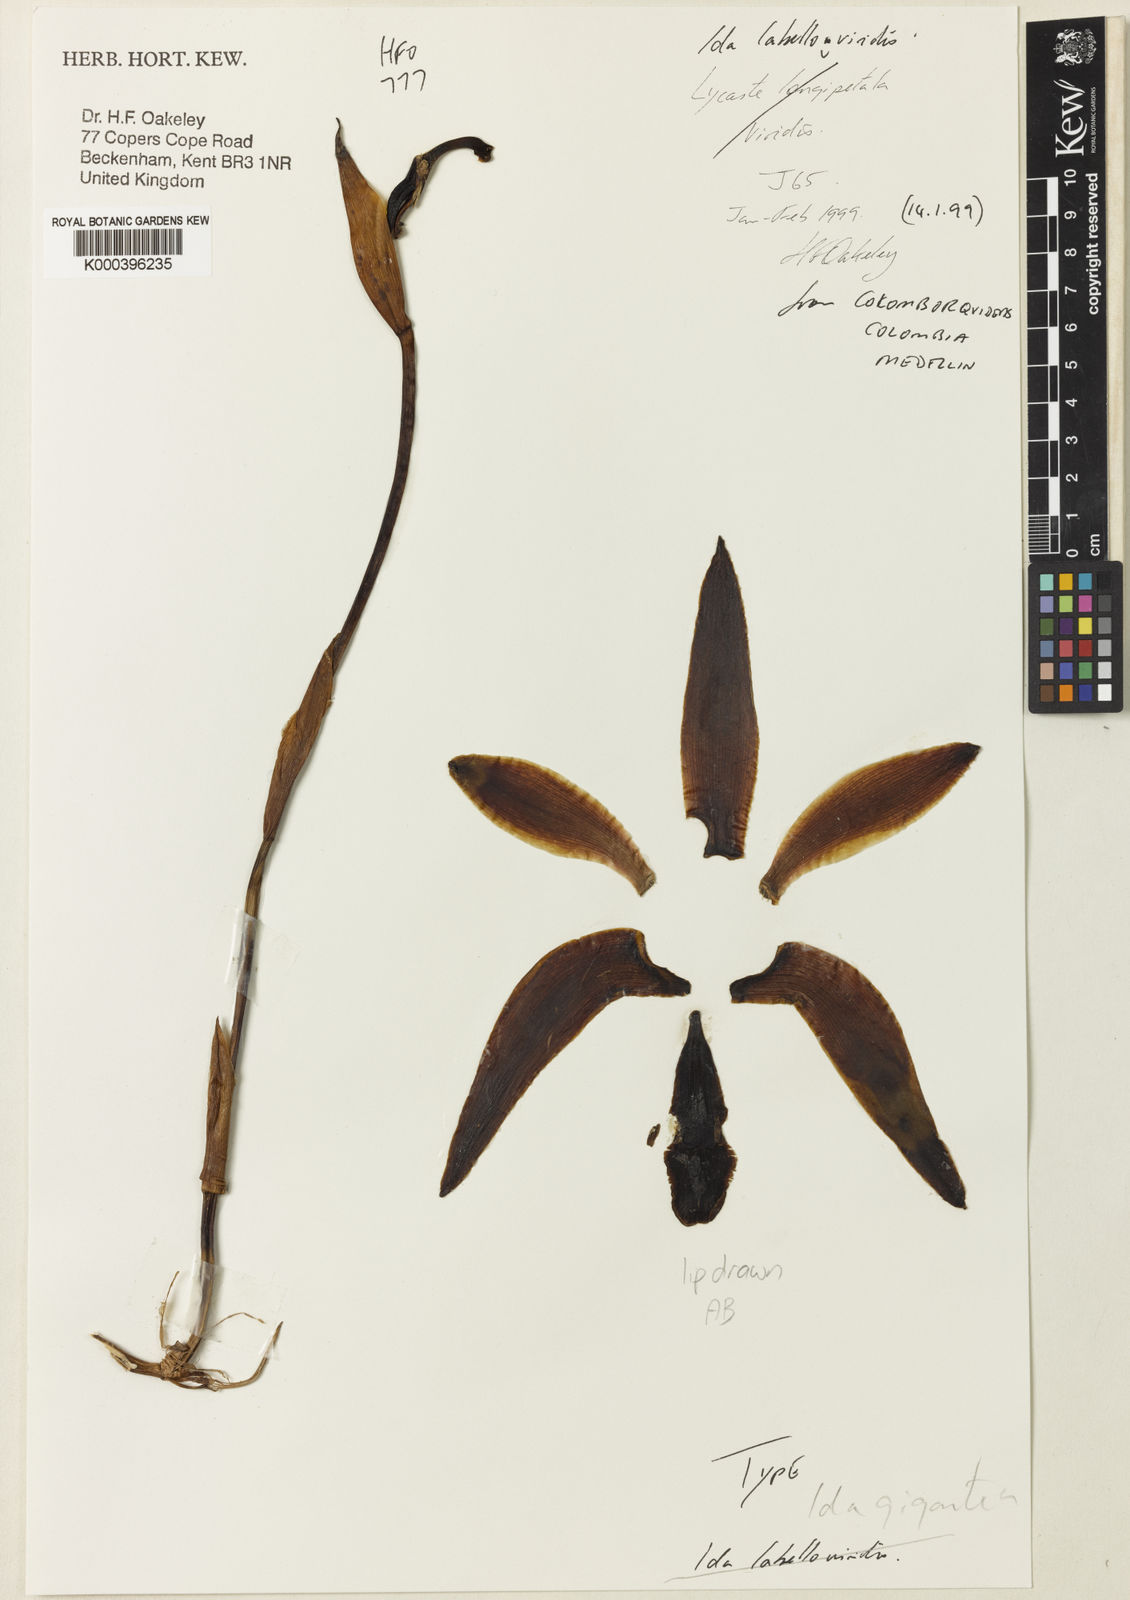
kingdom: Plantae
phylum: Tracheophyta
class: Liliopsida
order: Asparagales
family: Orchidaceae
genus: Ida
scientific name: Ida gigantea
